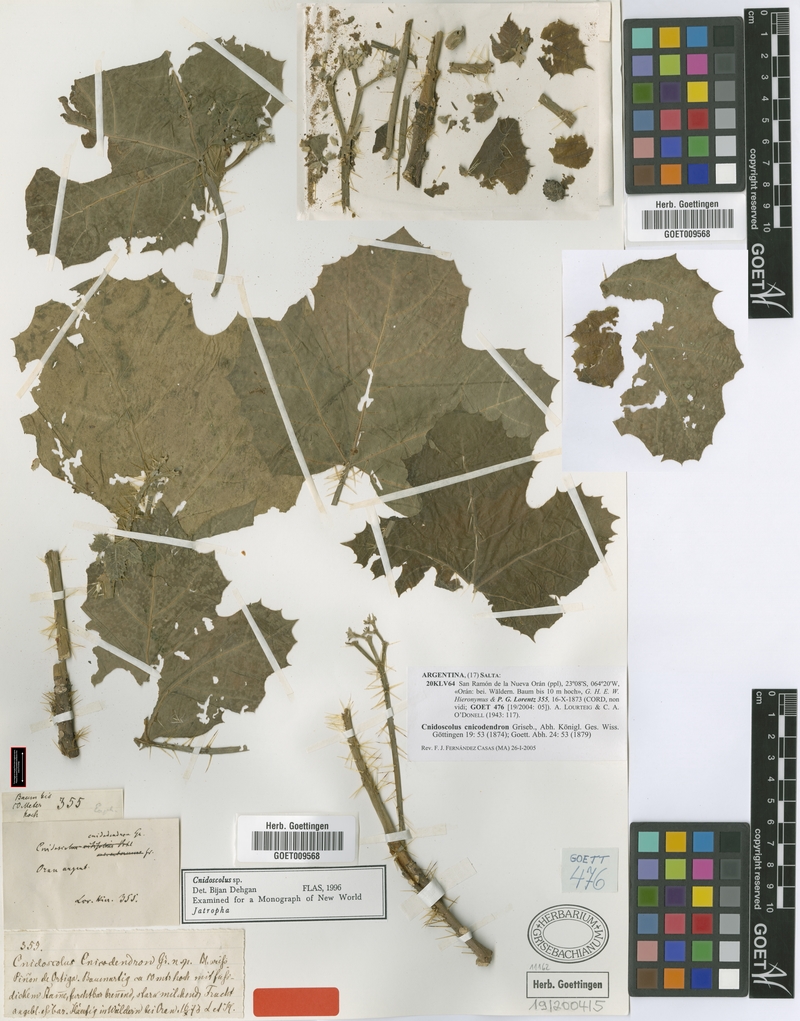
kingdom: Plantae
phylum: Tracheophyta
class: Magnoliopsida
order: Malpighiales
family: Euphorbiaceae
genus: Cnidoscolus
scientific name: Cnidoscolus cnicodendron
